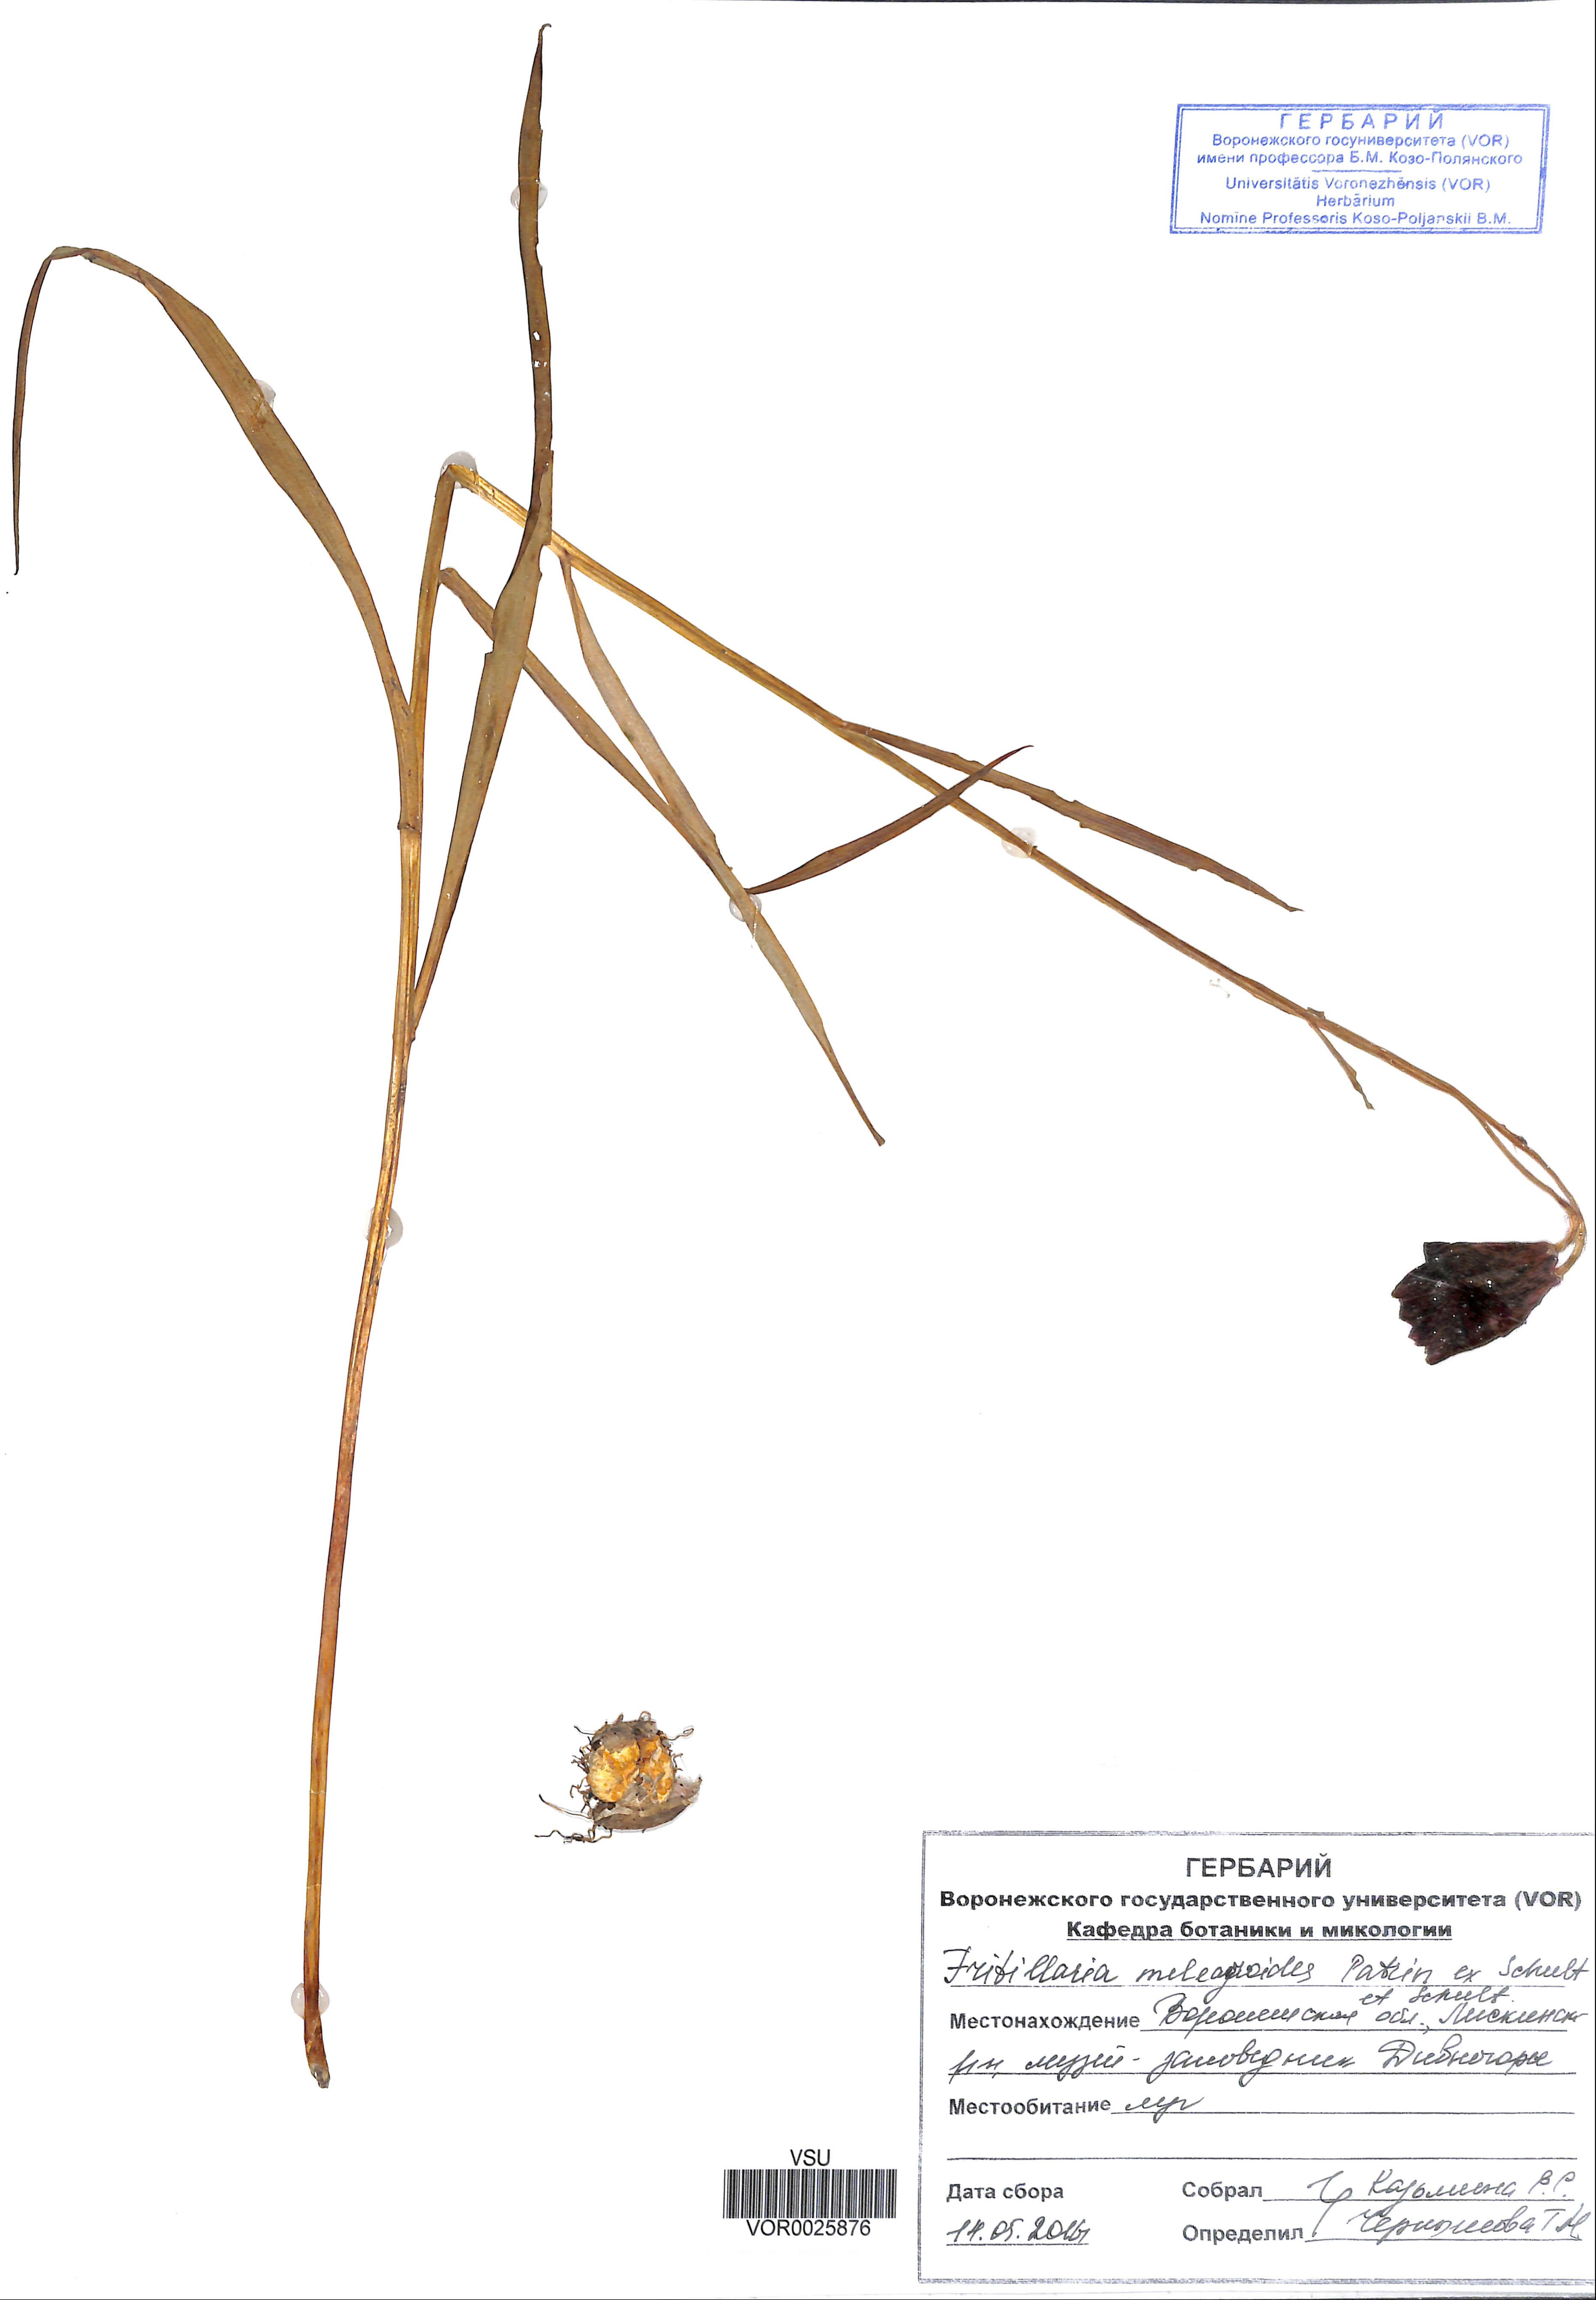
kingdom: Plantae
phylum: Tracheophyta
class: Liliopsida
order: Liliales
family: Liliaceae
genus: Fritillaria
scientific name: Fritillaria meleagroides
